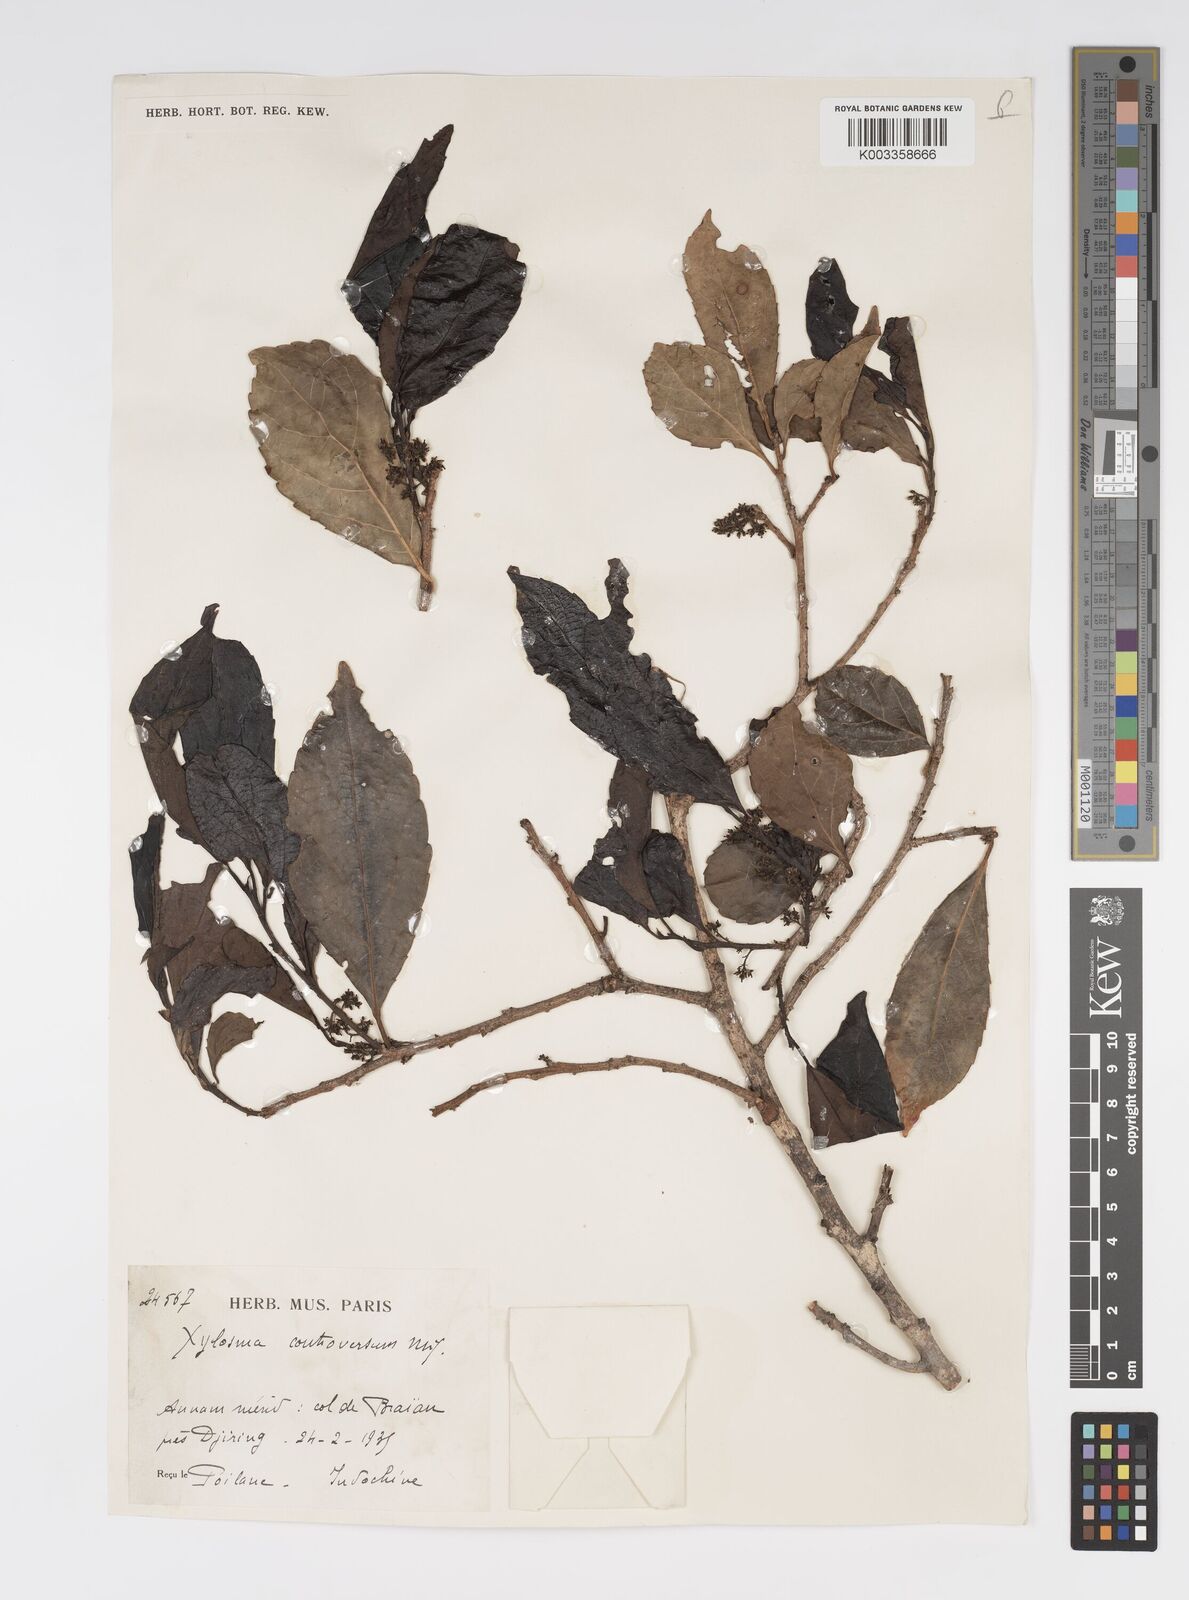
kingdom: Plantae
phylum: Tracheophyta
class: Magnoliopsida
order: Malpighiales
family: Salicaceae
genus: Xylosma
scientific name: Xylosma controversa
